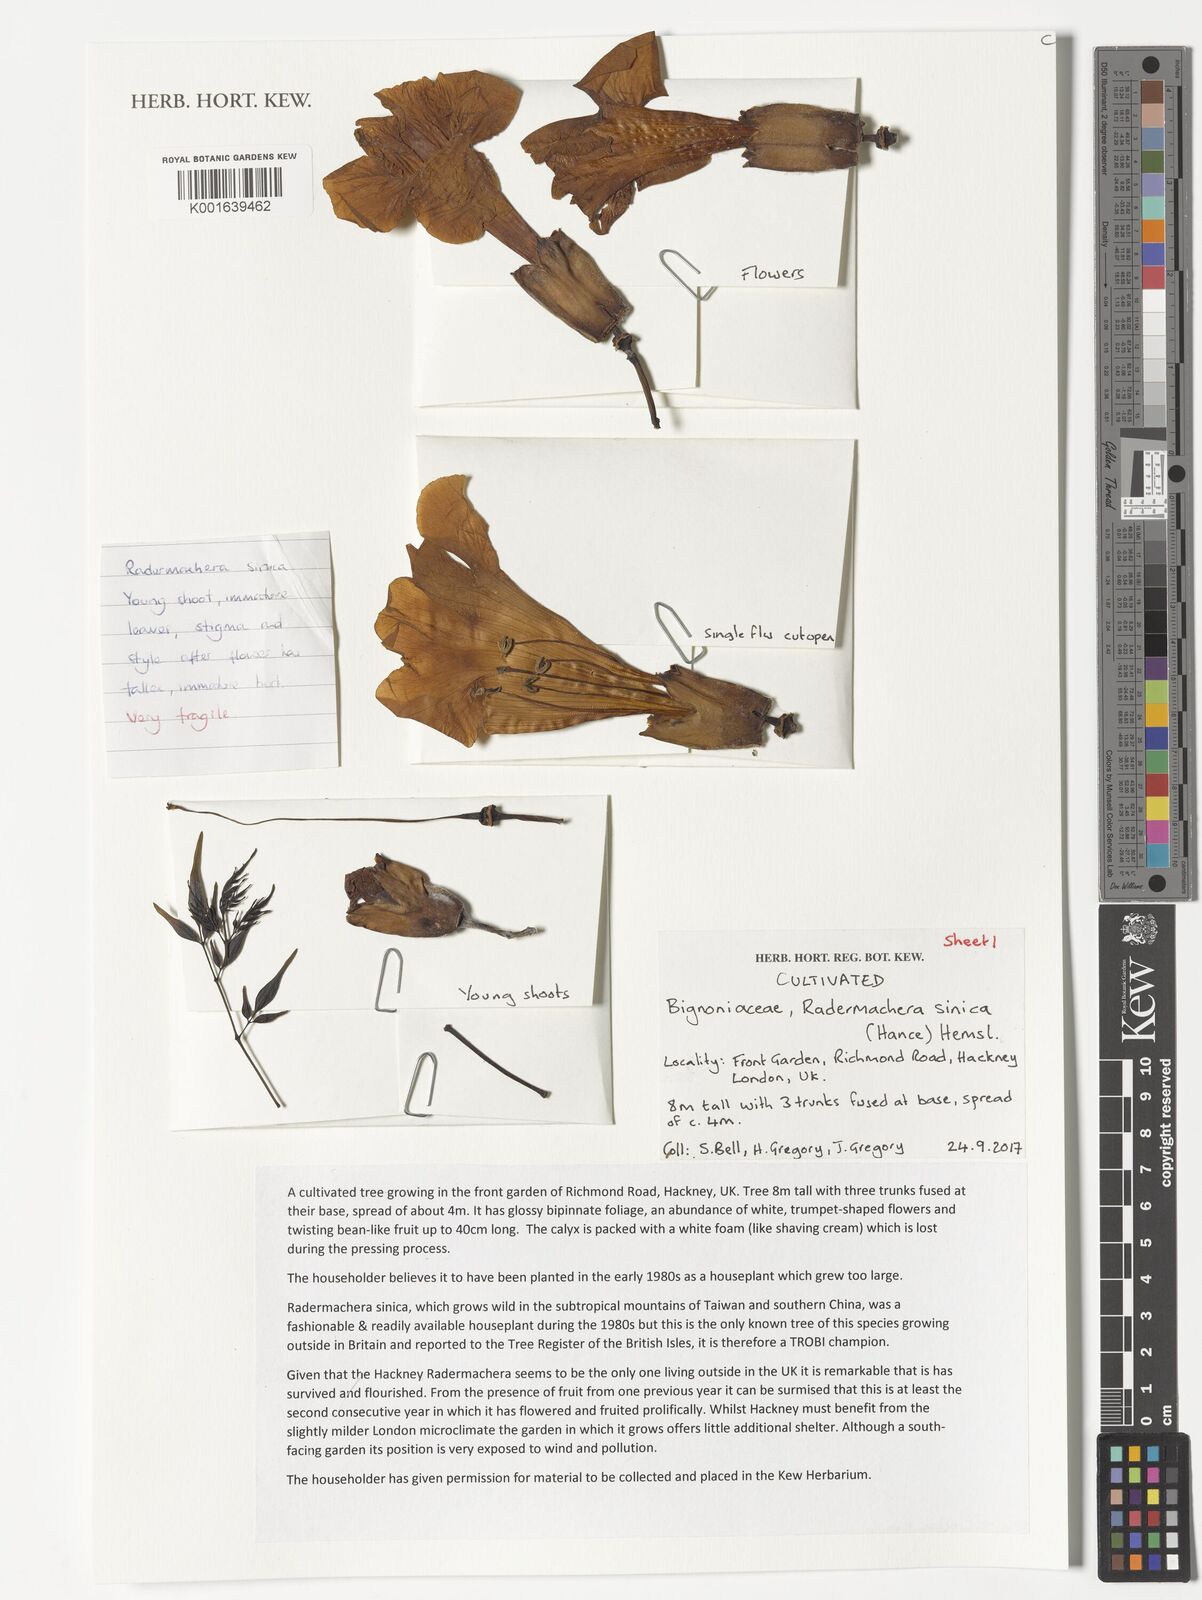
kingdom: Plantae
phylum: Tracheophyta
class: Magnoliopsida
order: Lamiales
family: Bignoniaceae
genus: Radermachera
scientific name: Radermachera sinica
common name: China doll plant
